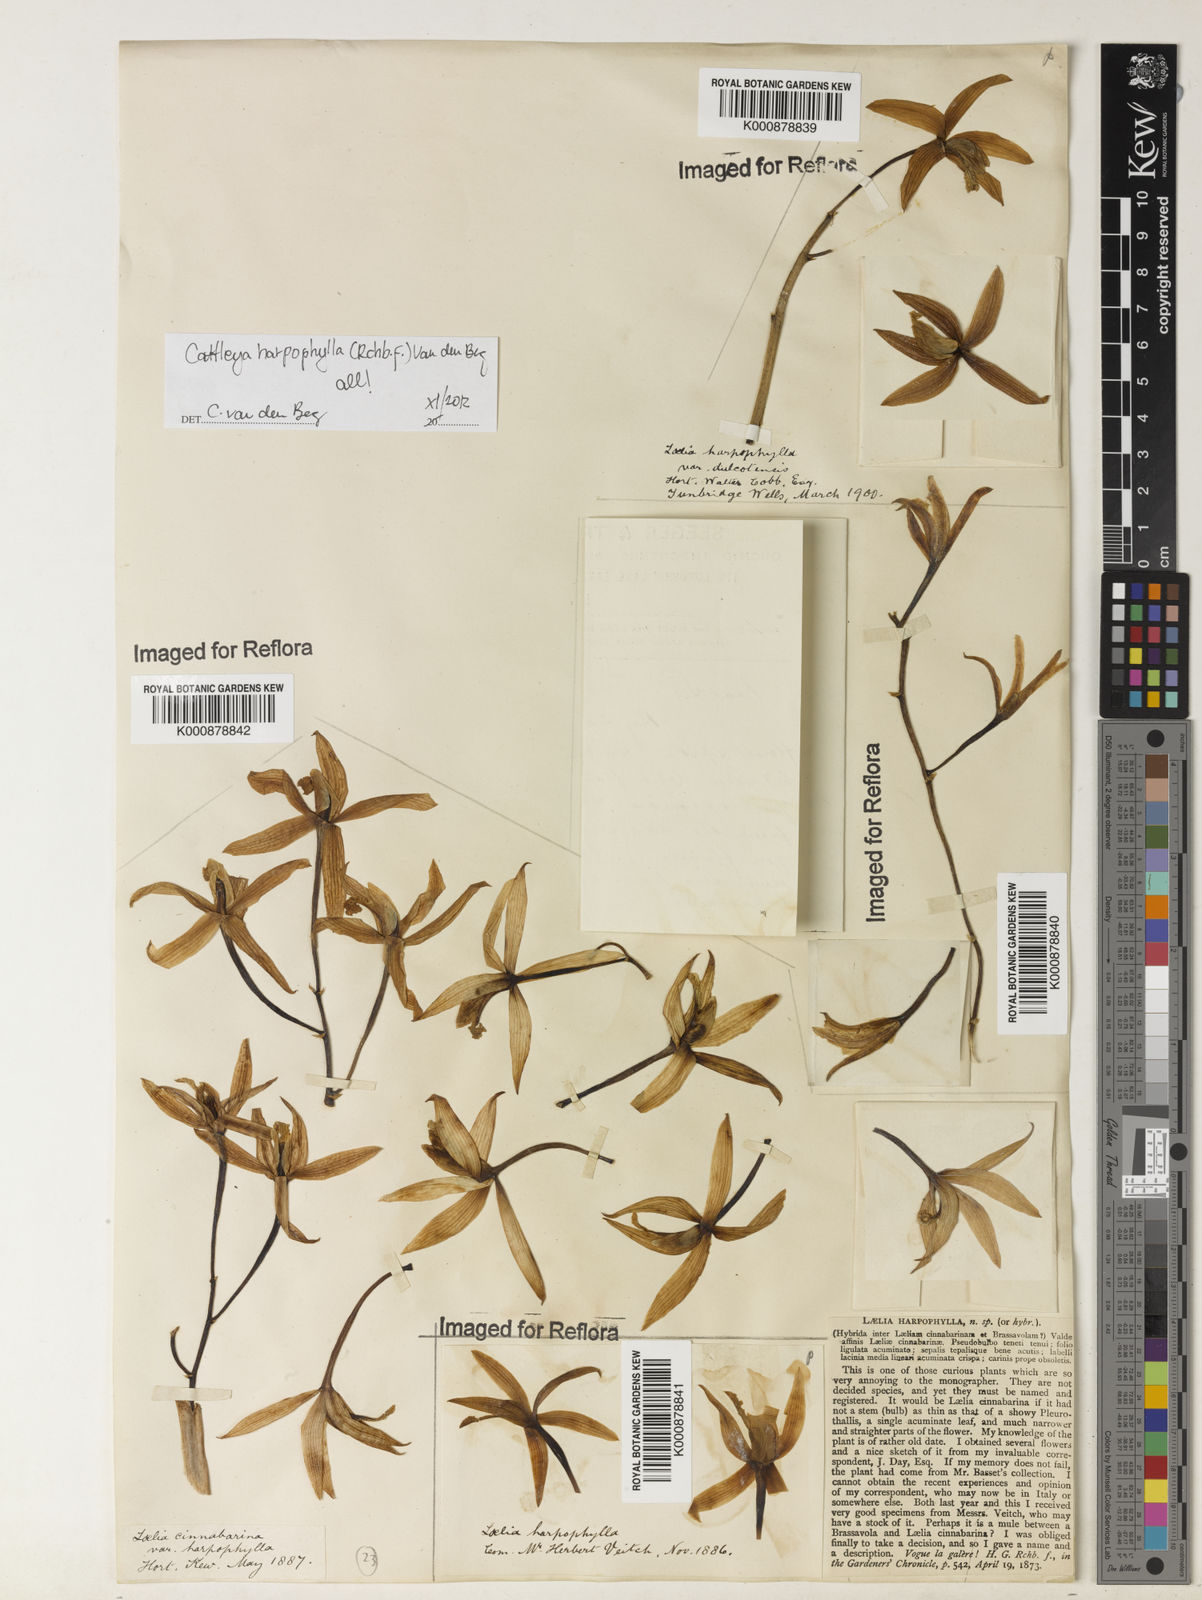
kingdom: Plantae
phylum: Tracheophyta
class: Liliopsida
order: Asparagales
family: Orchidaceae
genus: Cattleya
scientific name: Cattleya harpophylla
